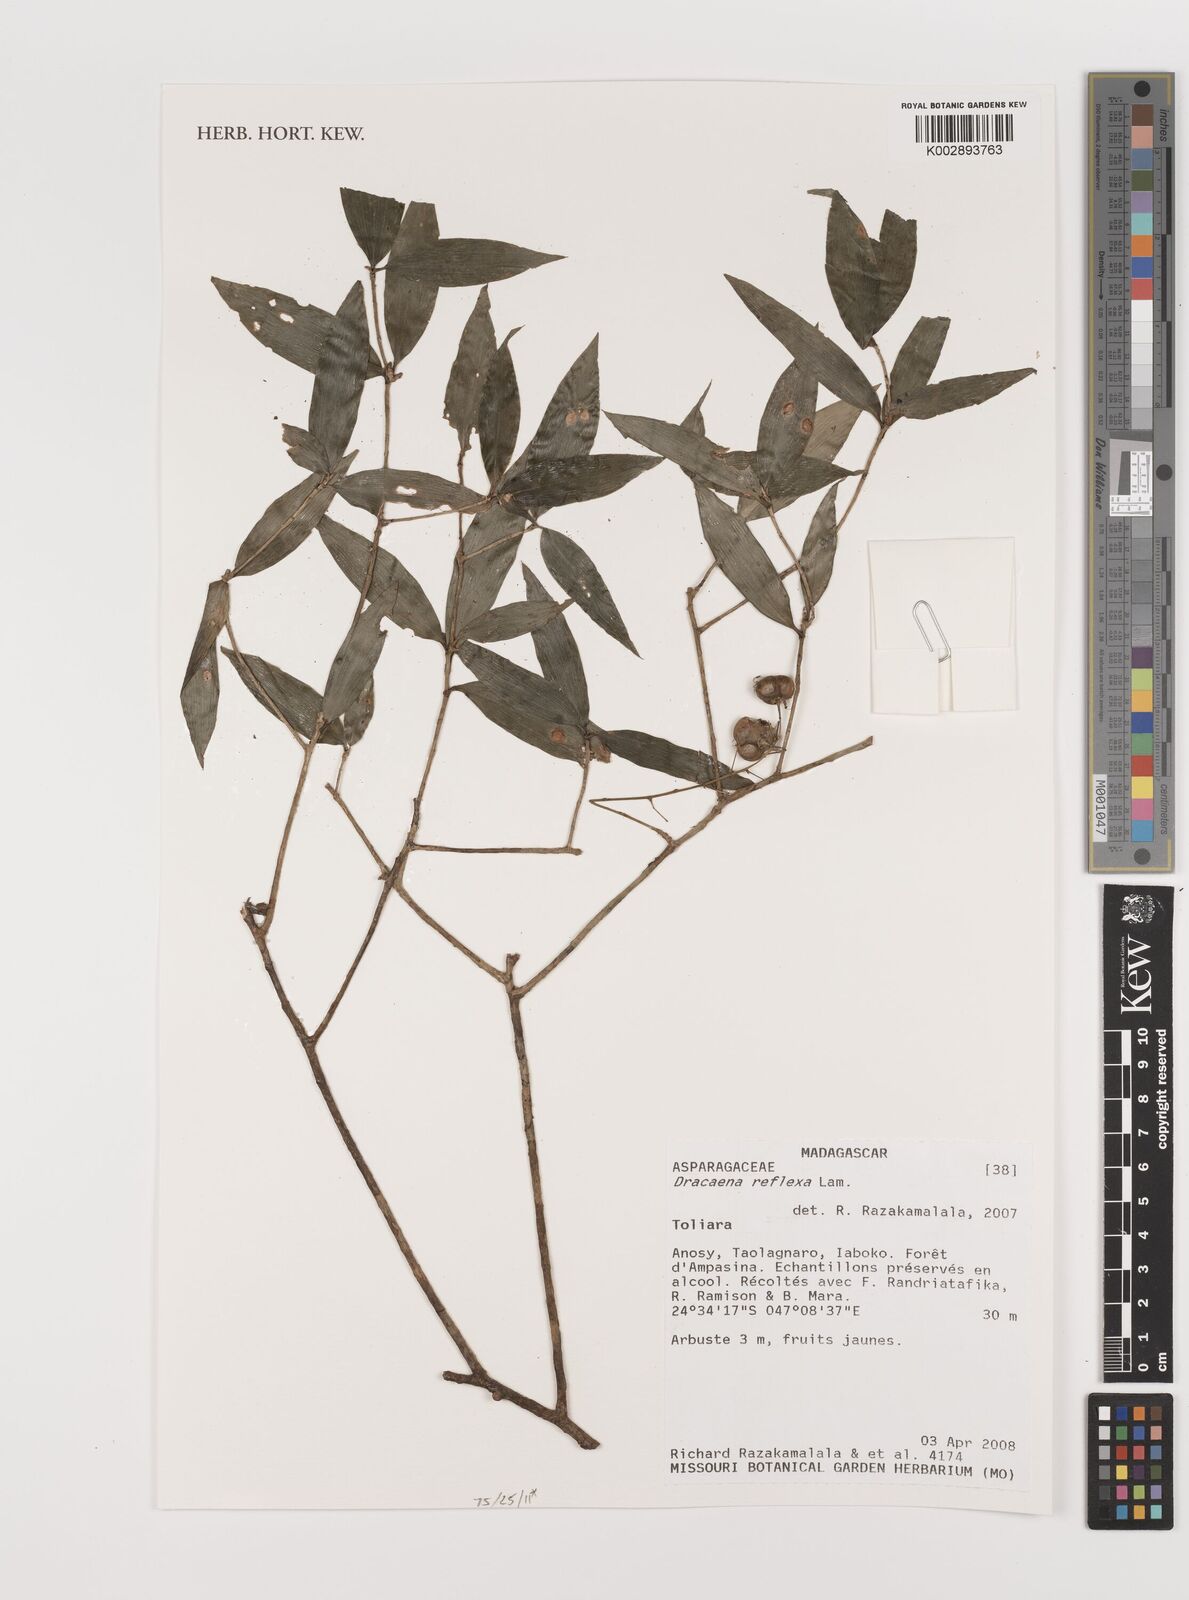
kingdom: Plantae
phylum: Tracheophyta
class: Liliopsida
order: Asparagales
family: Asparagaceae
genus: Dracaena
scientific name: Dracaena reflexa
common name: Song-of-india
